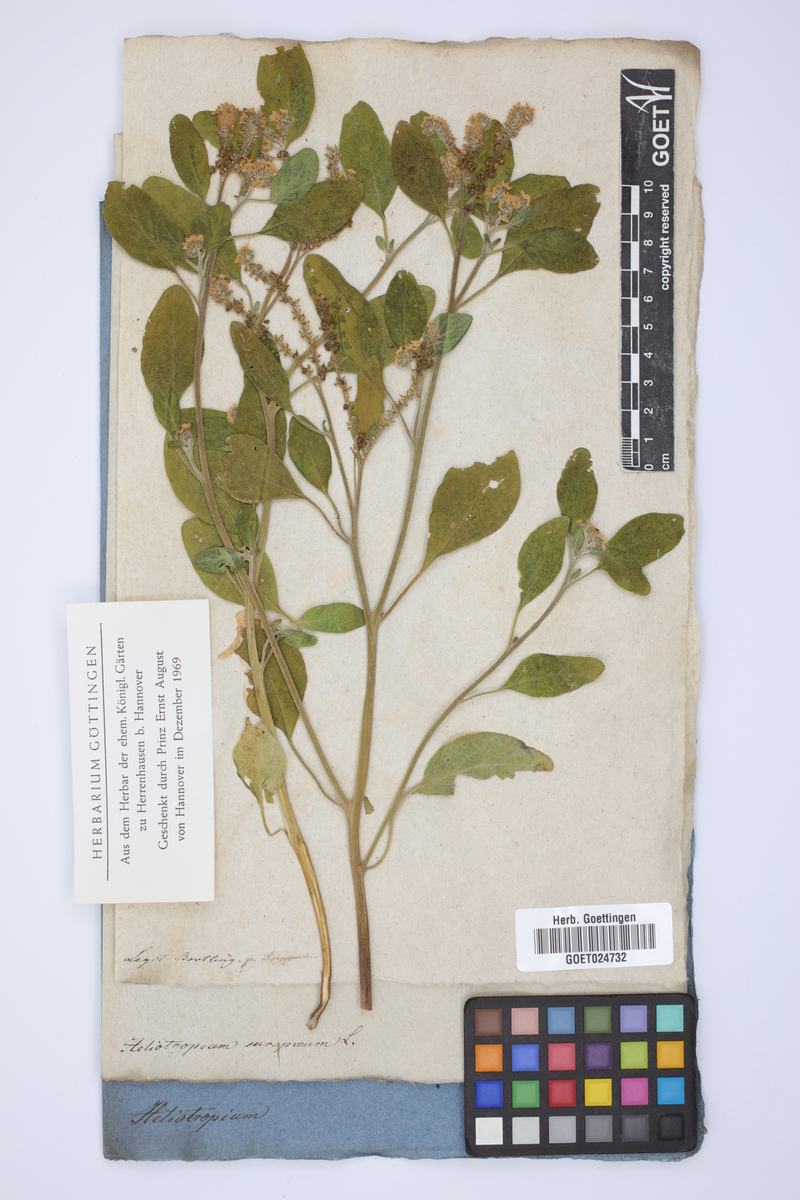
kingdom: Plantae
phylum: Tracheophyta
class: Magnoliopsida
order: Boraginales
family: Heliotropiaceae
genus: Heliotropium
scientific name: Heliotropium europaeum
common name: European heliotrope
